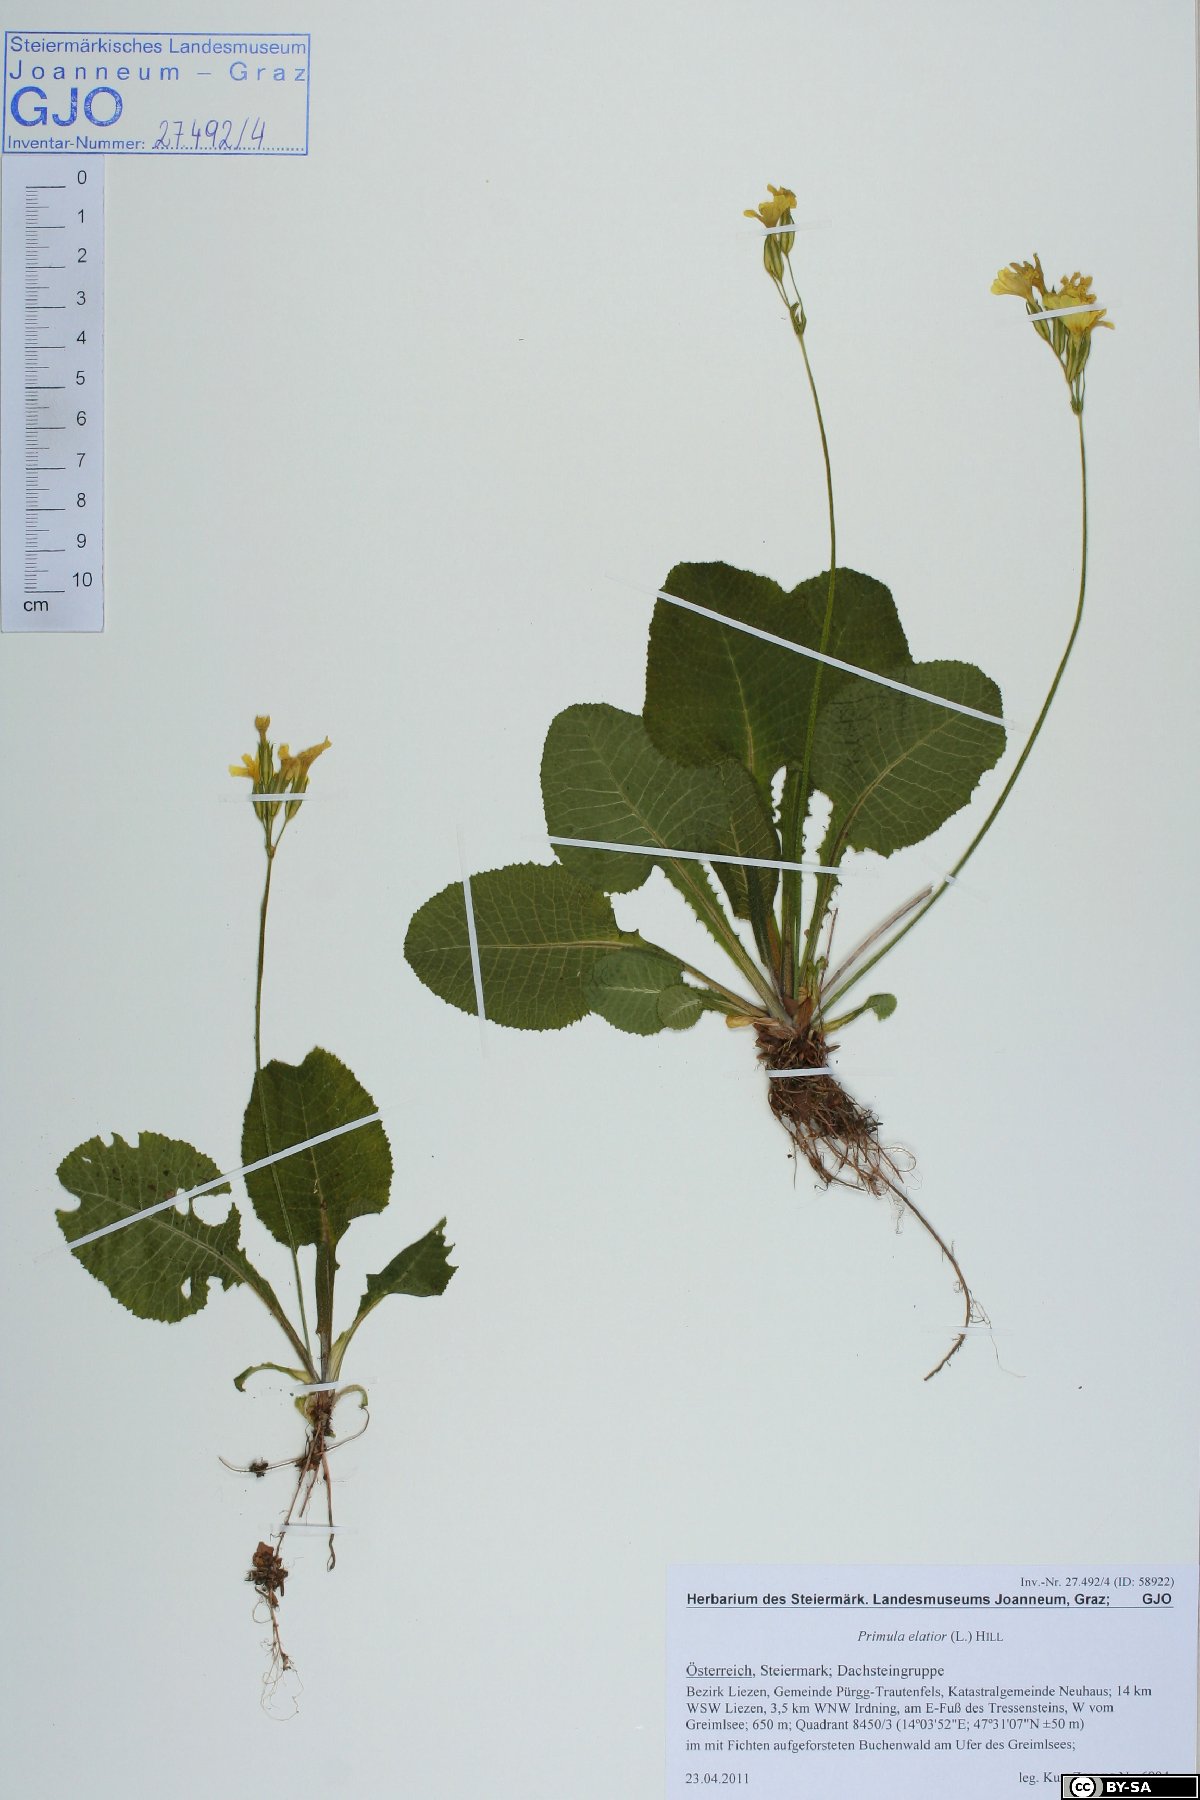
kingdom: Plantae
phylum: Tracheophyta
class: Magnoliopsida
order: Ericales
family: Primulaceae
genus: Primula
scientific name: Primula elatior
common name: Oxlip
